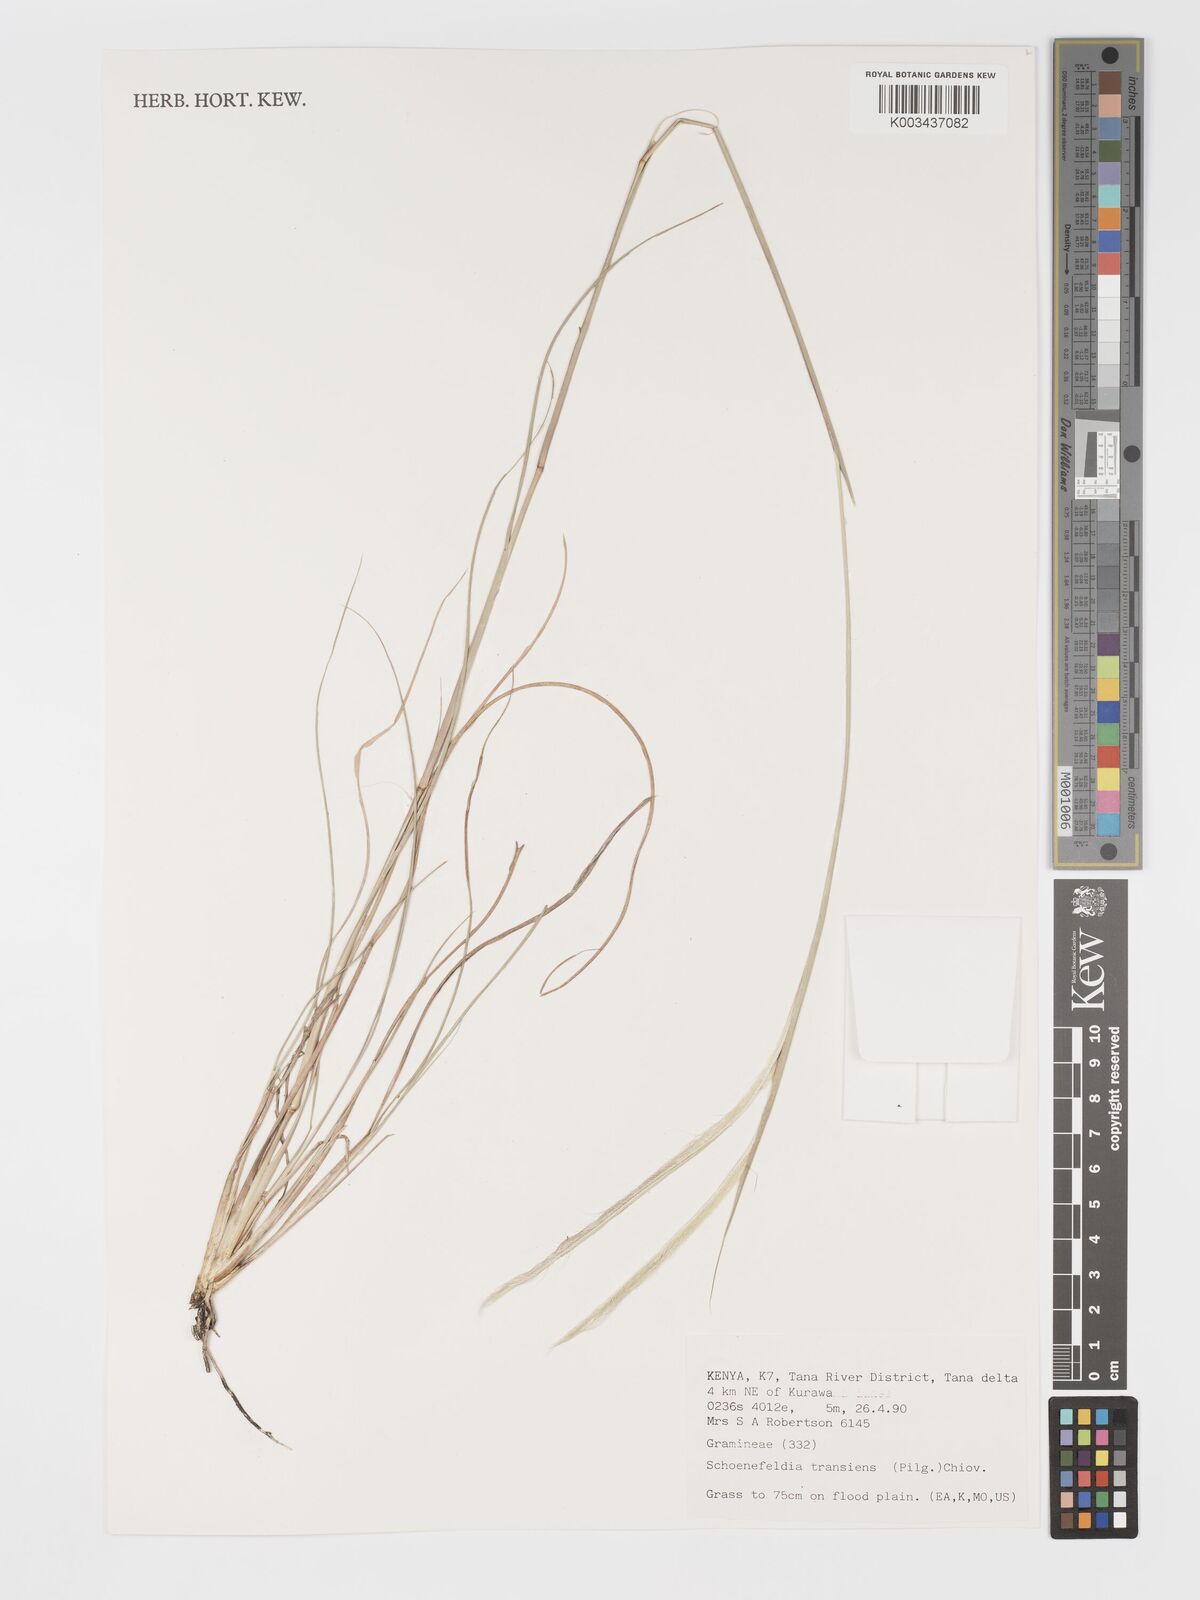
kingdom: Plantae
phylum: Tracheophyta
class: Liliopsida
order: Poales
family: Poaceae
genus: Schoenefeldia
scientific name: Schoenefeldia transiens
